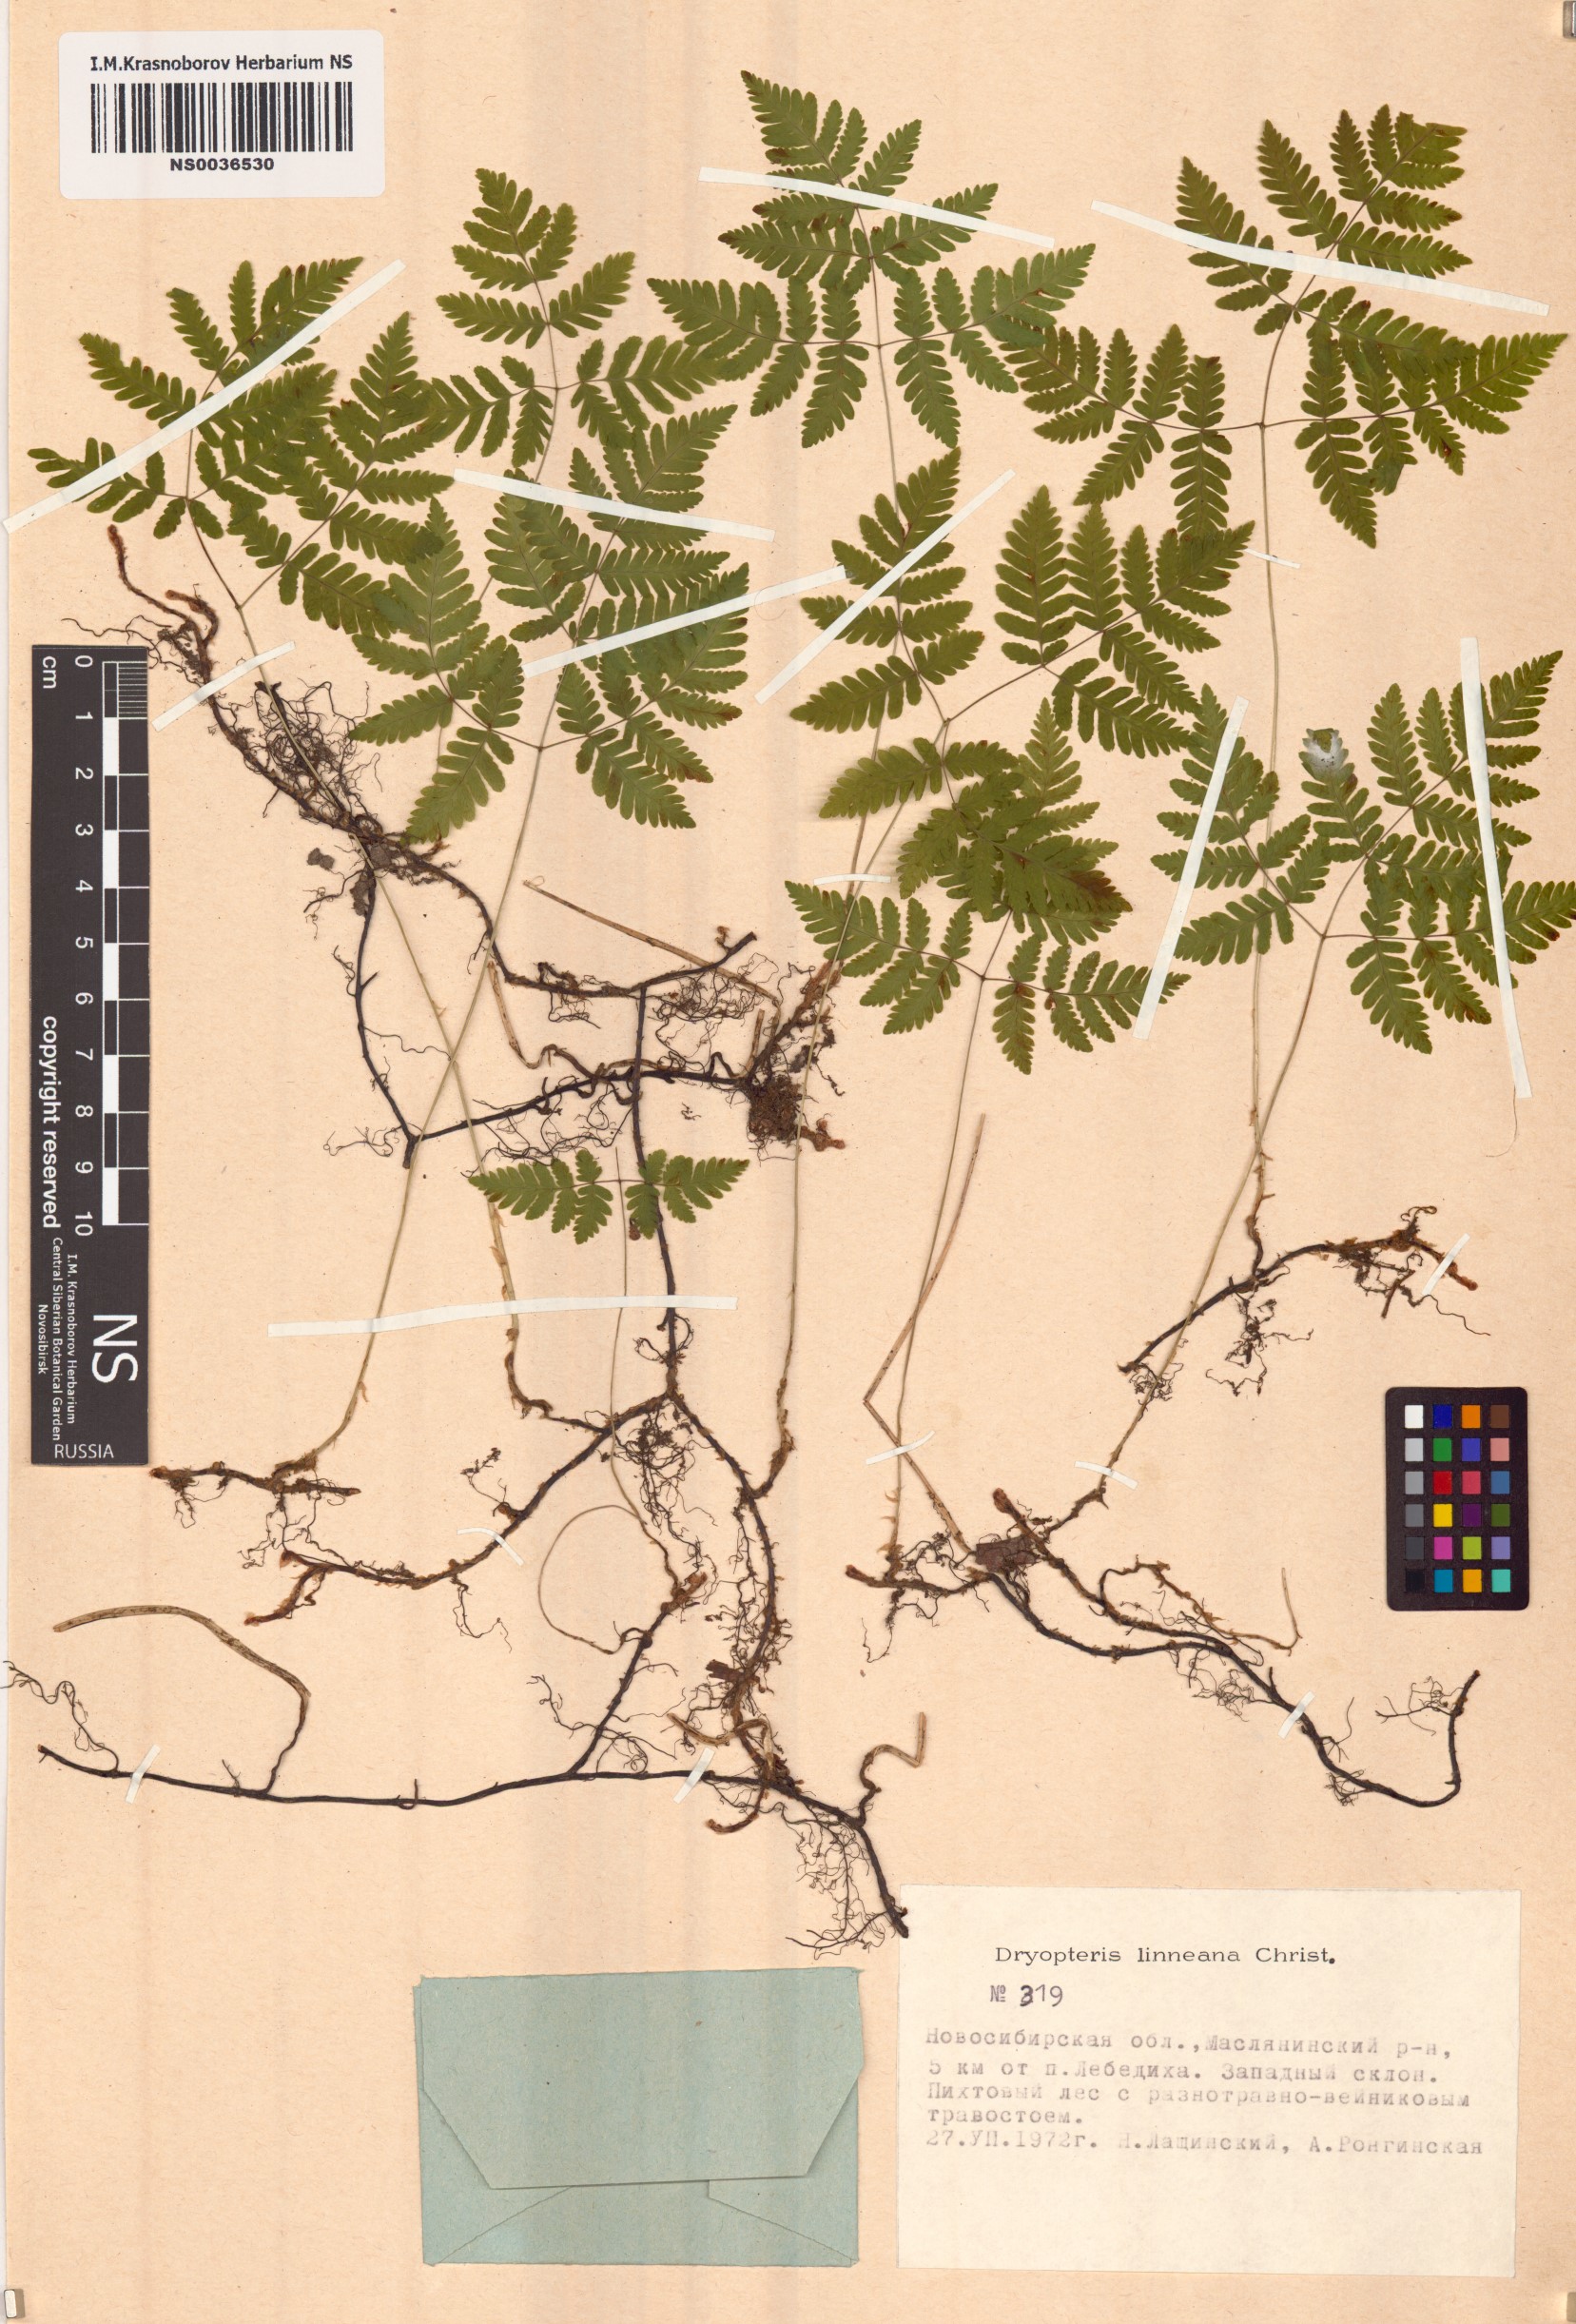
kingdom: Plantae
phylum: Tracheophyta
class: Polypodiopsida
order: Polypodiales
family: Cystopteridaceae
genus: Gymnocarpium
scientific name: Gymnocarpium dryopteris
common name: Oak fern
